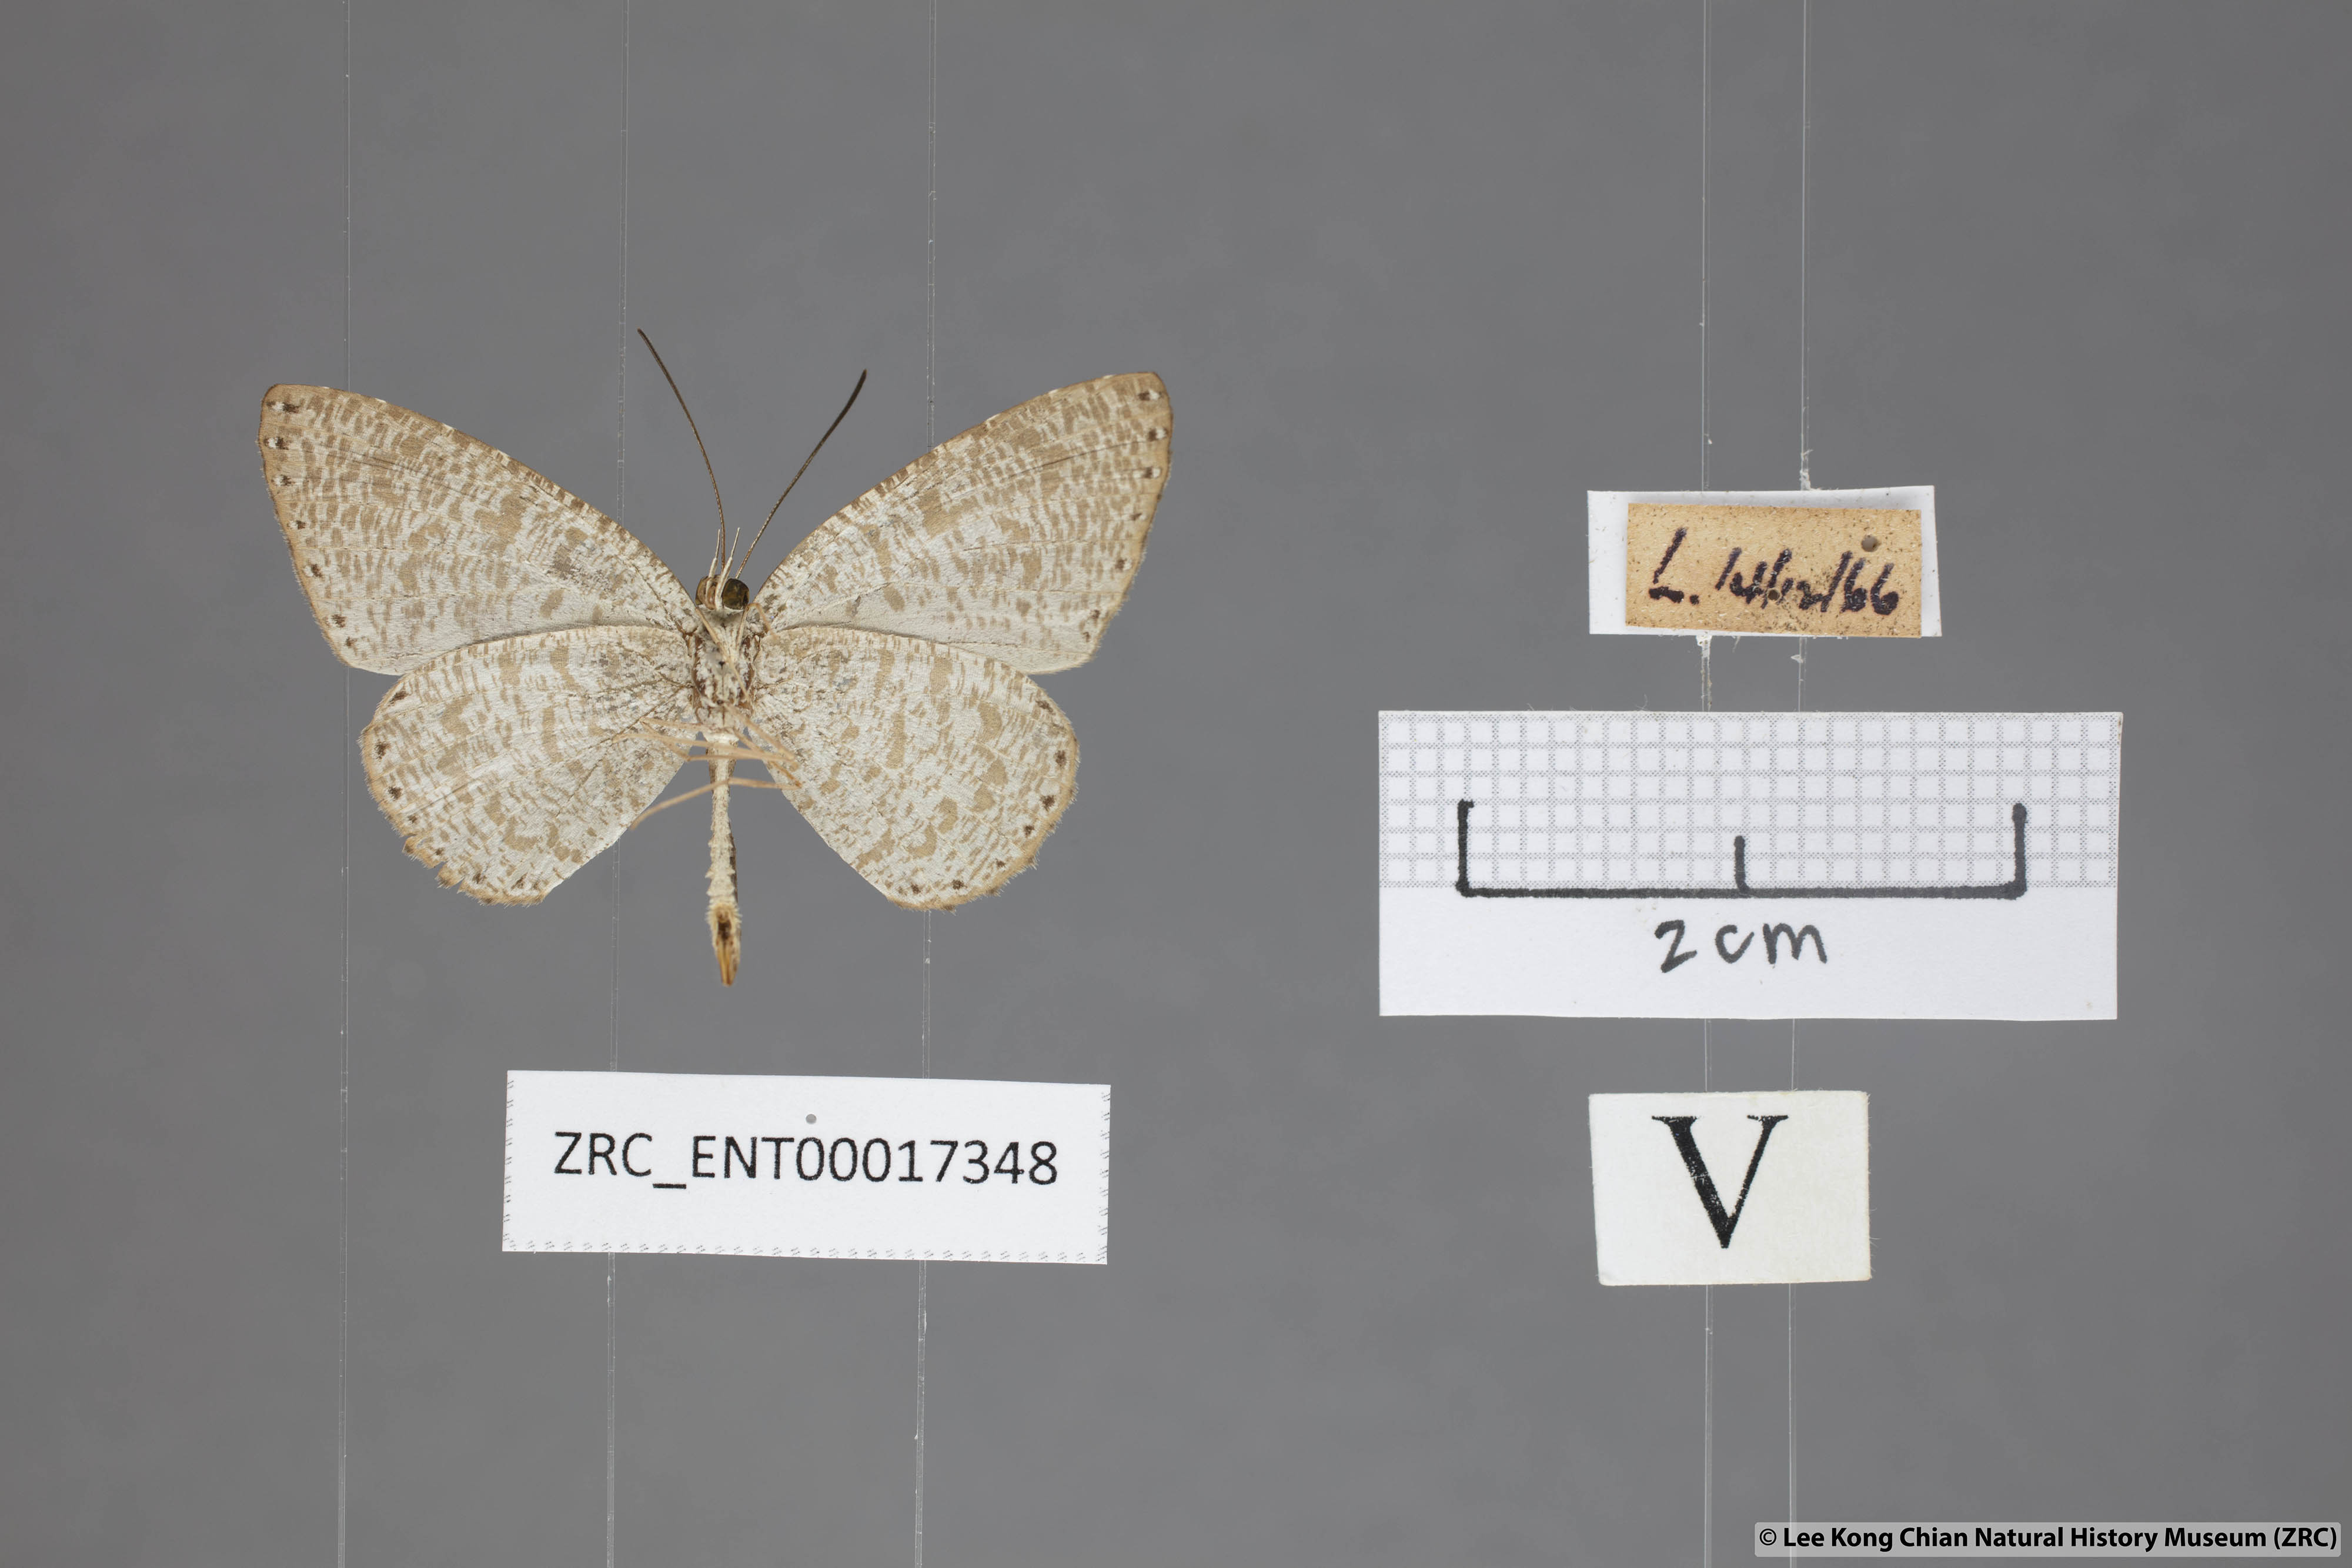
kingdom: Animalia
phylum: Arthropoda
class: Insecta
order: Lepidoptera
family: Lycaenidae
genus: Allotinus
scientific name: Allotinus sarastes
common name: Peninsular darkie
